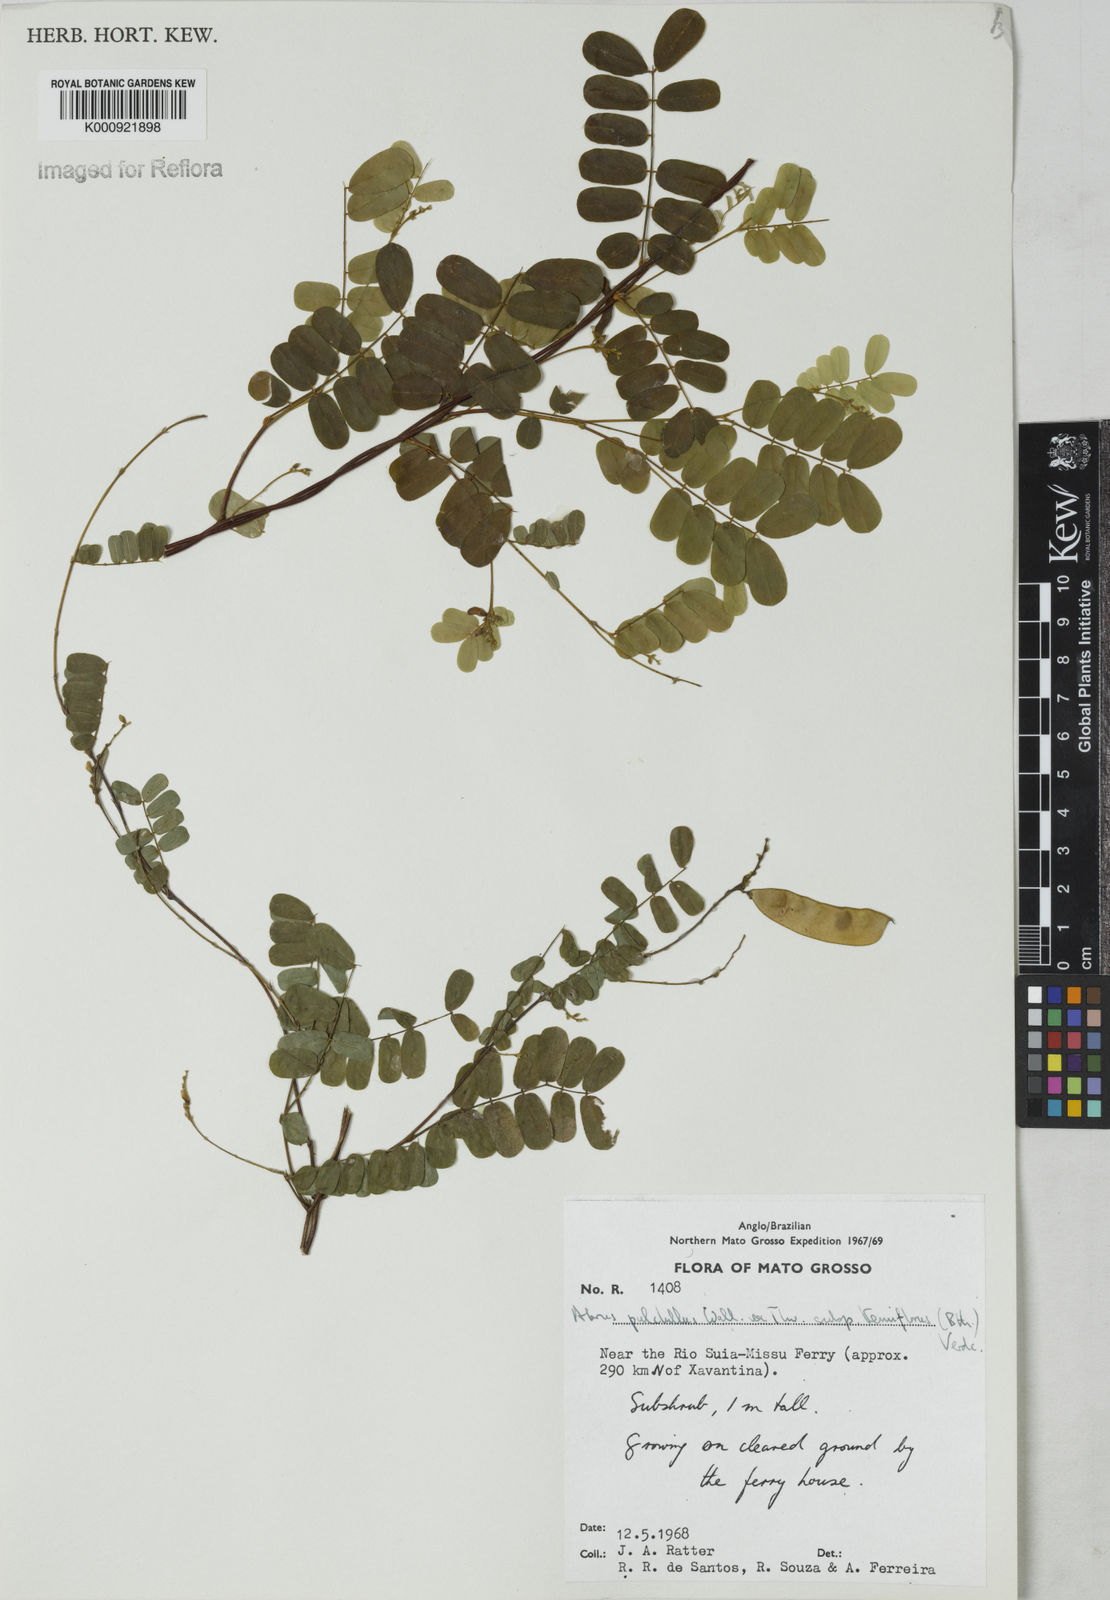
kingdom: Plantae
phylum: Tracheophyta
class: Magnoliopsida
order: Fabales
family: Fabaceae
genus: Abrus
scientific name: Abrus melanospermus
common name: Licorice-root
